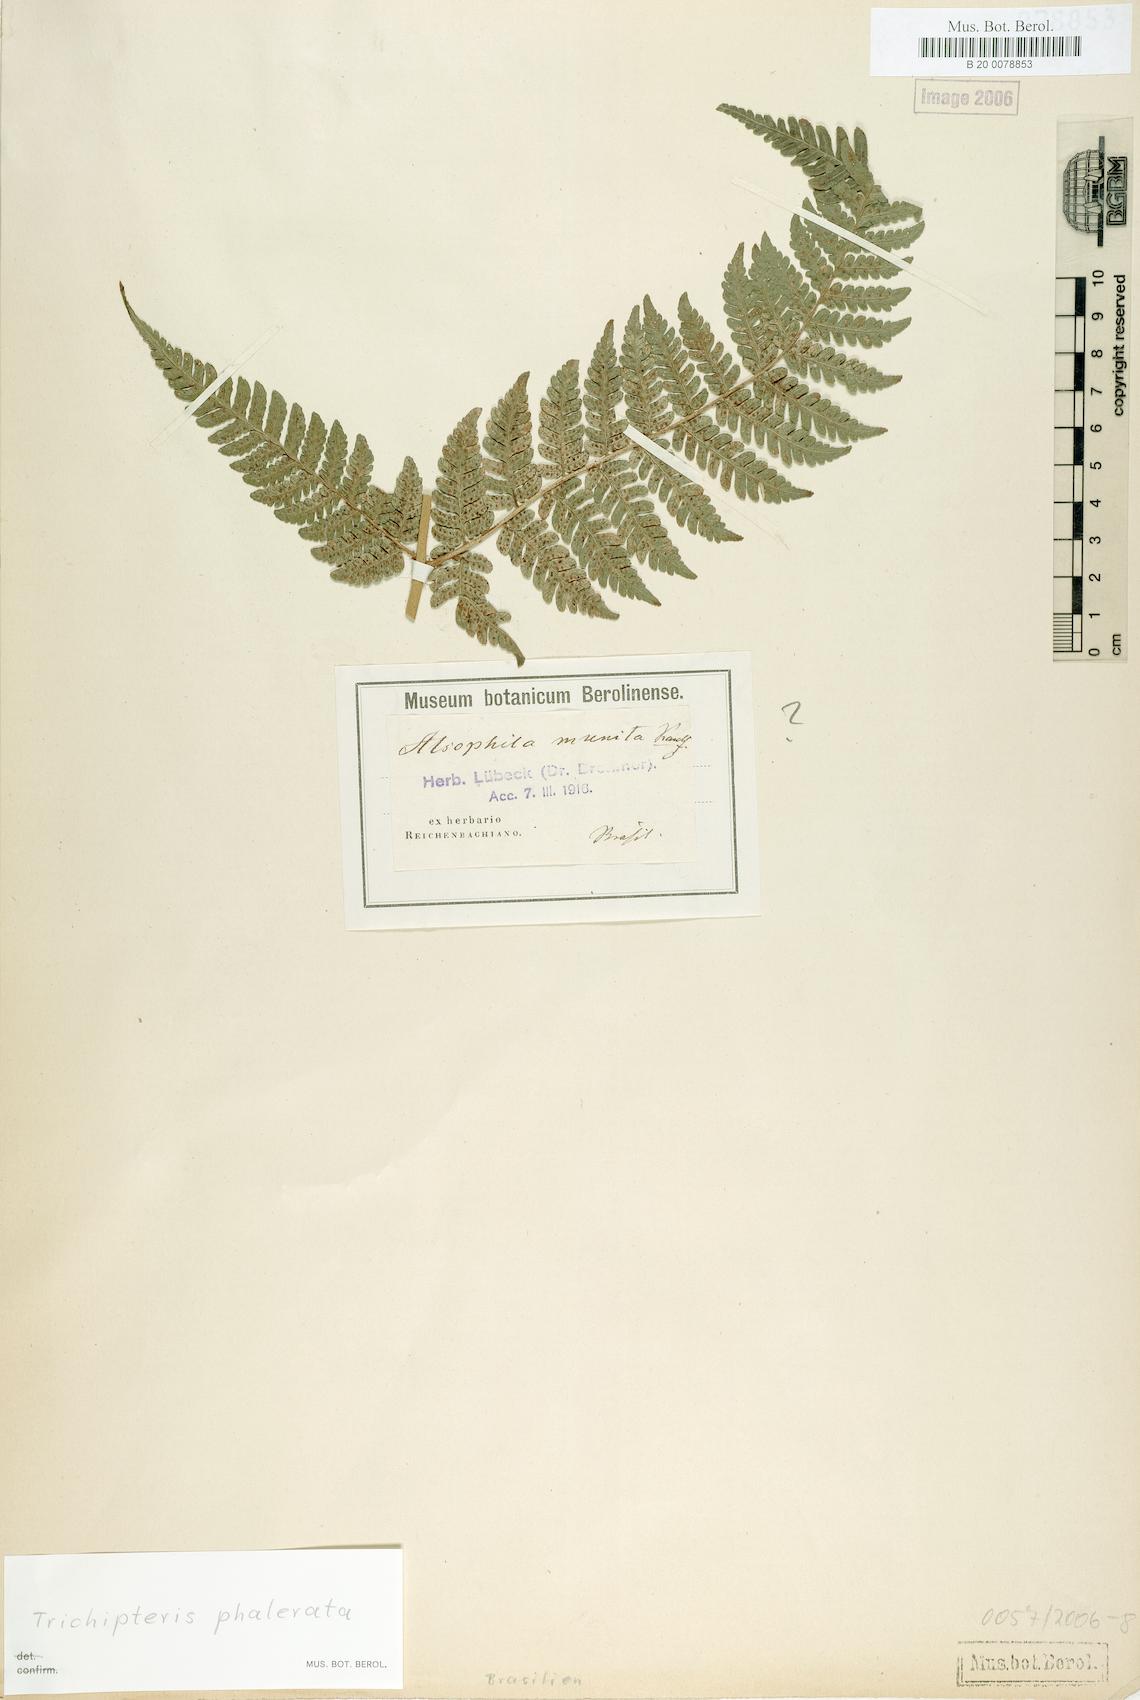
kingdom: Plantae
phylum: Tracheophyta
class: Polypodiopsida
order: Cyatheales
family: Cyatheaceae
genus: Cyathea
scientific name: Cyathea phalerata
